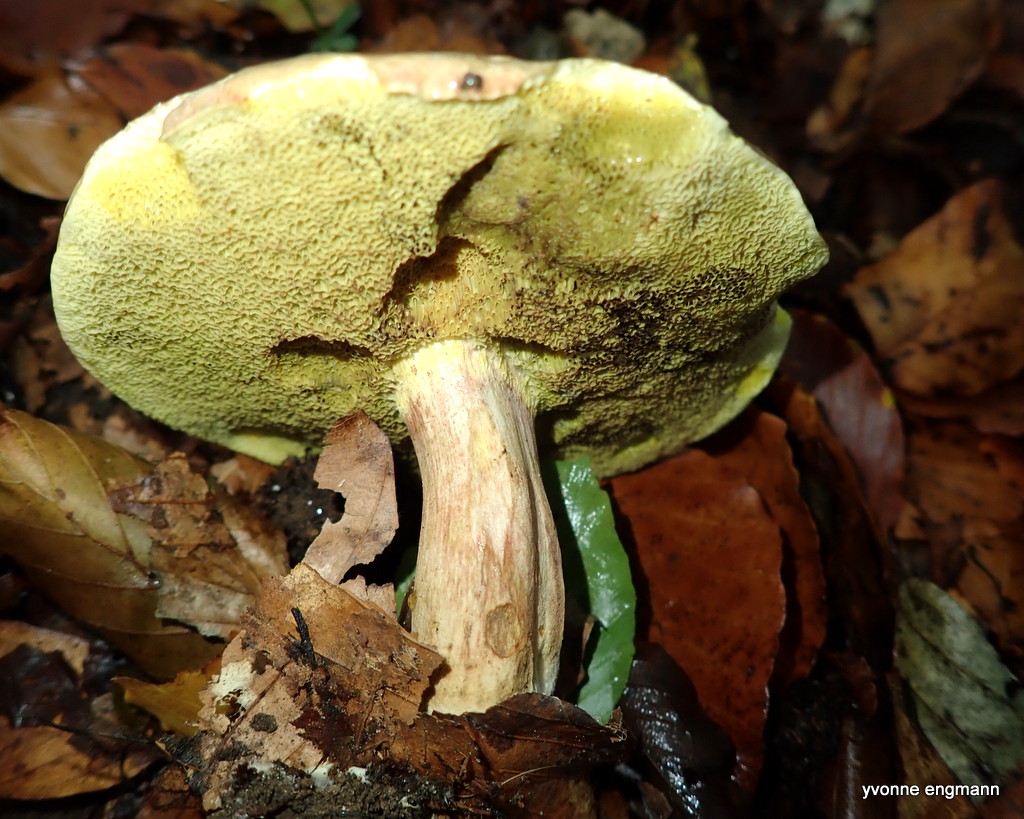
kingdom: Fungi
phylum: Basidiomycota
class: Agaricomycetes
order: Boletales
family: Boletaceae
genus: Xerocomellus
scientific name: Xerocomellus pruinatus
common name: dugget rørhat
